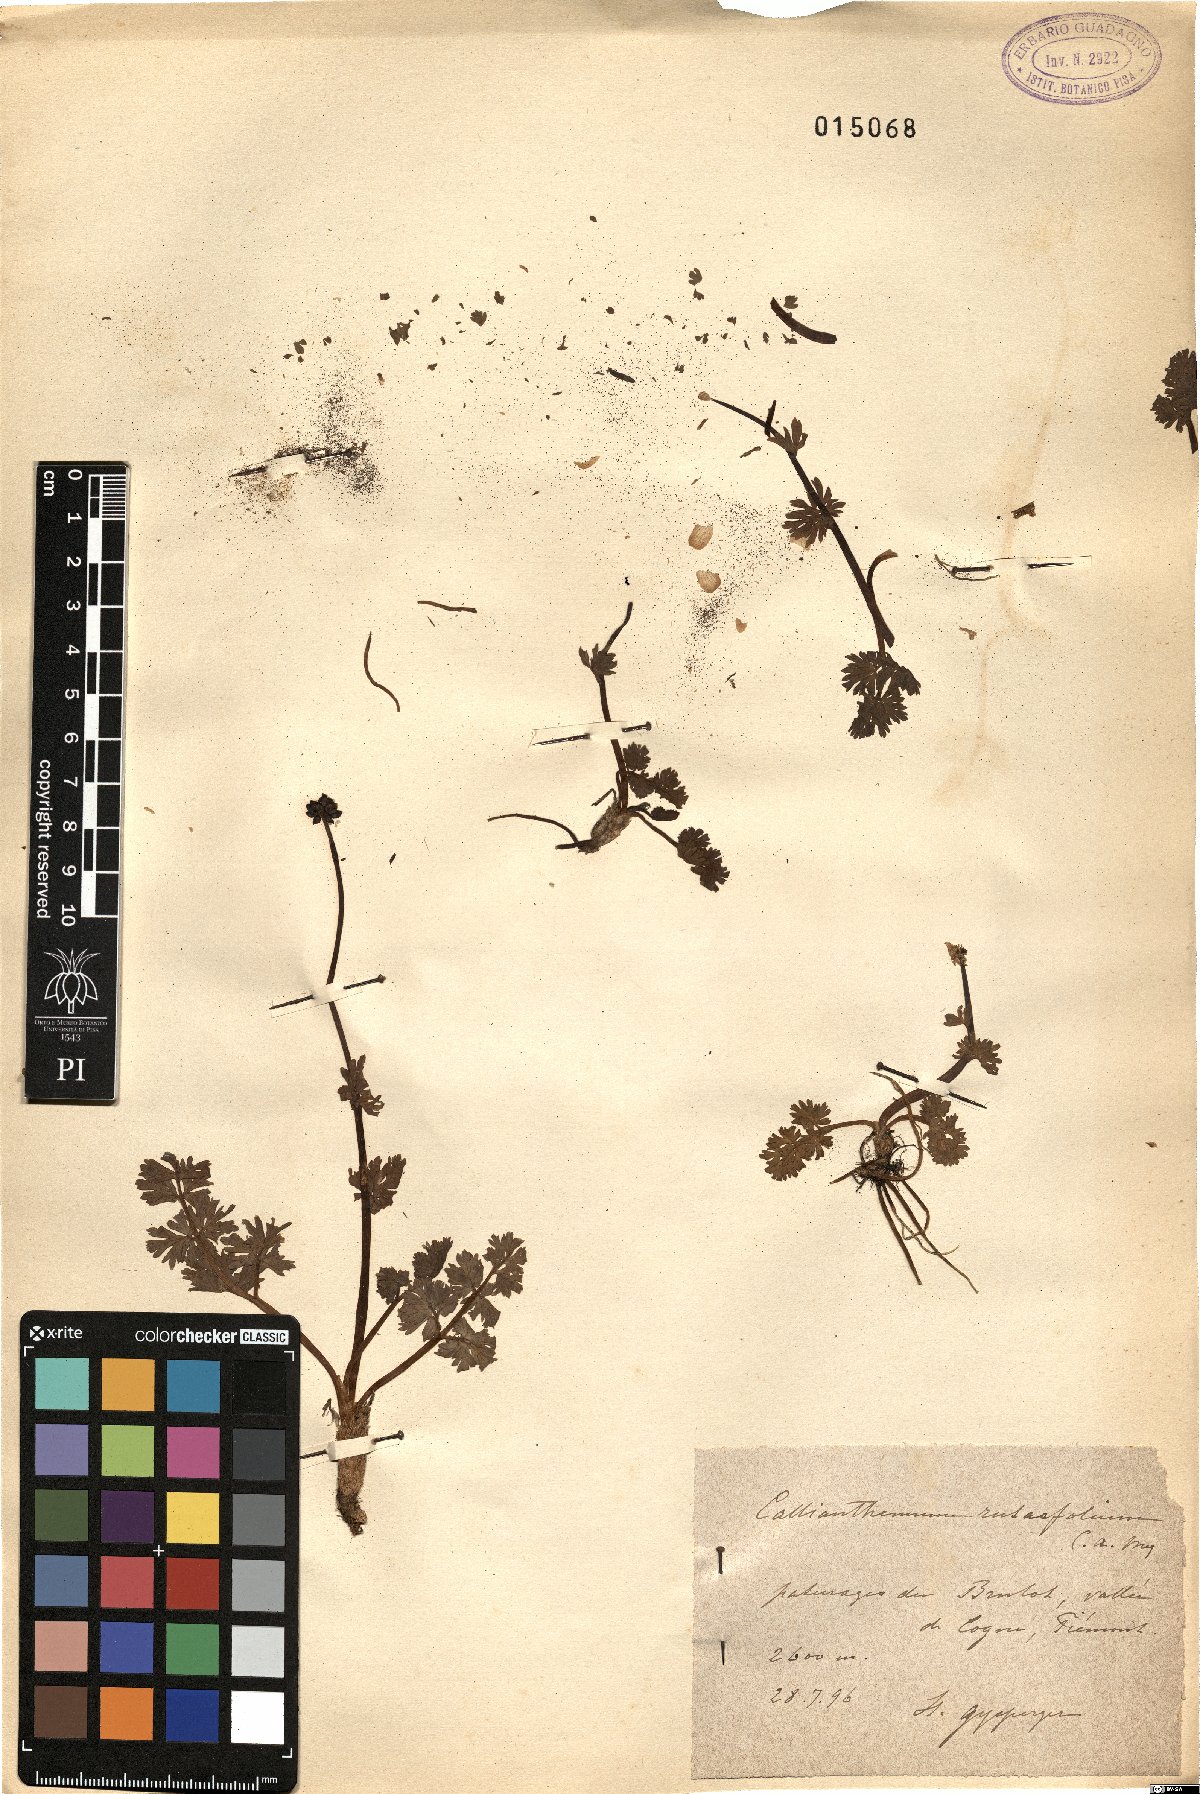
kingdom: Plantae
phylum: Tracheophyta
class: Magnoliopsida
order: Ranunculales
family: Ranunculaceae
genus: Callianthemum
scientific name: Callianthemum anemonoides
